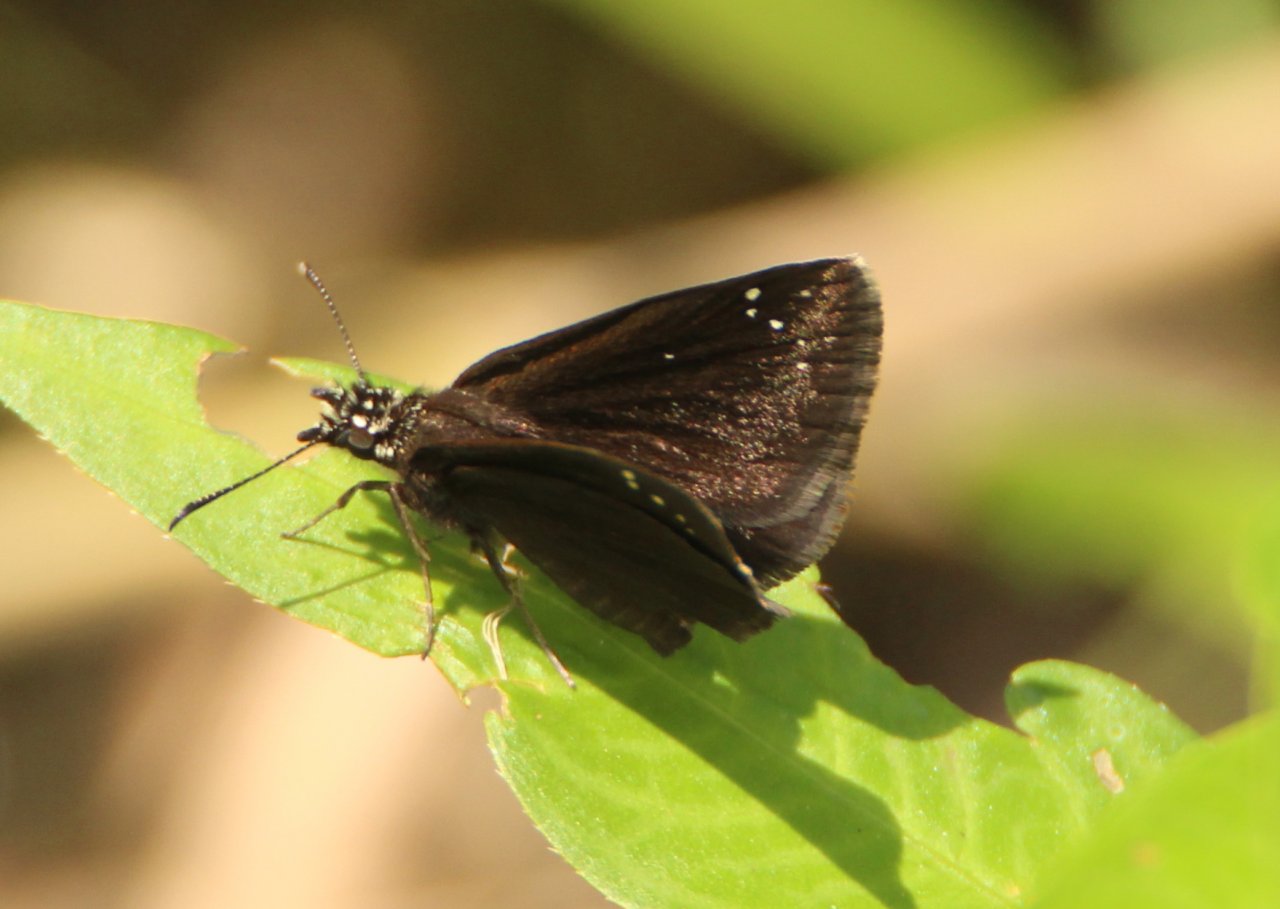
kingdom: Animalia
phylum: Arthropoda
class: Insecta
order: Lepidoptera
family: Hesperiidae
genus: Pholisora
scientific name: Pholisora catullus
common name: Common Sootywing
